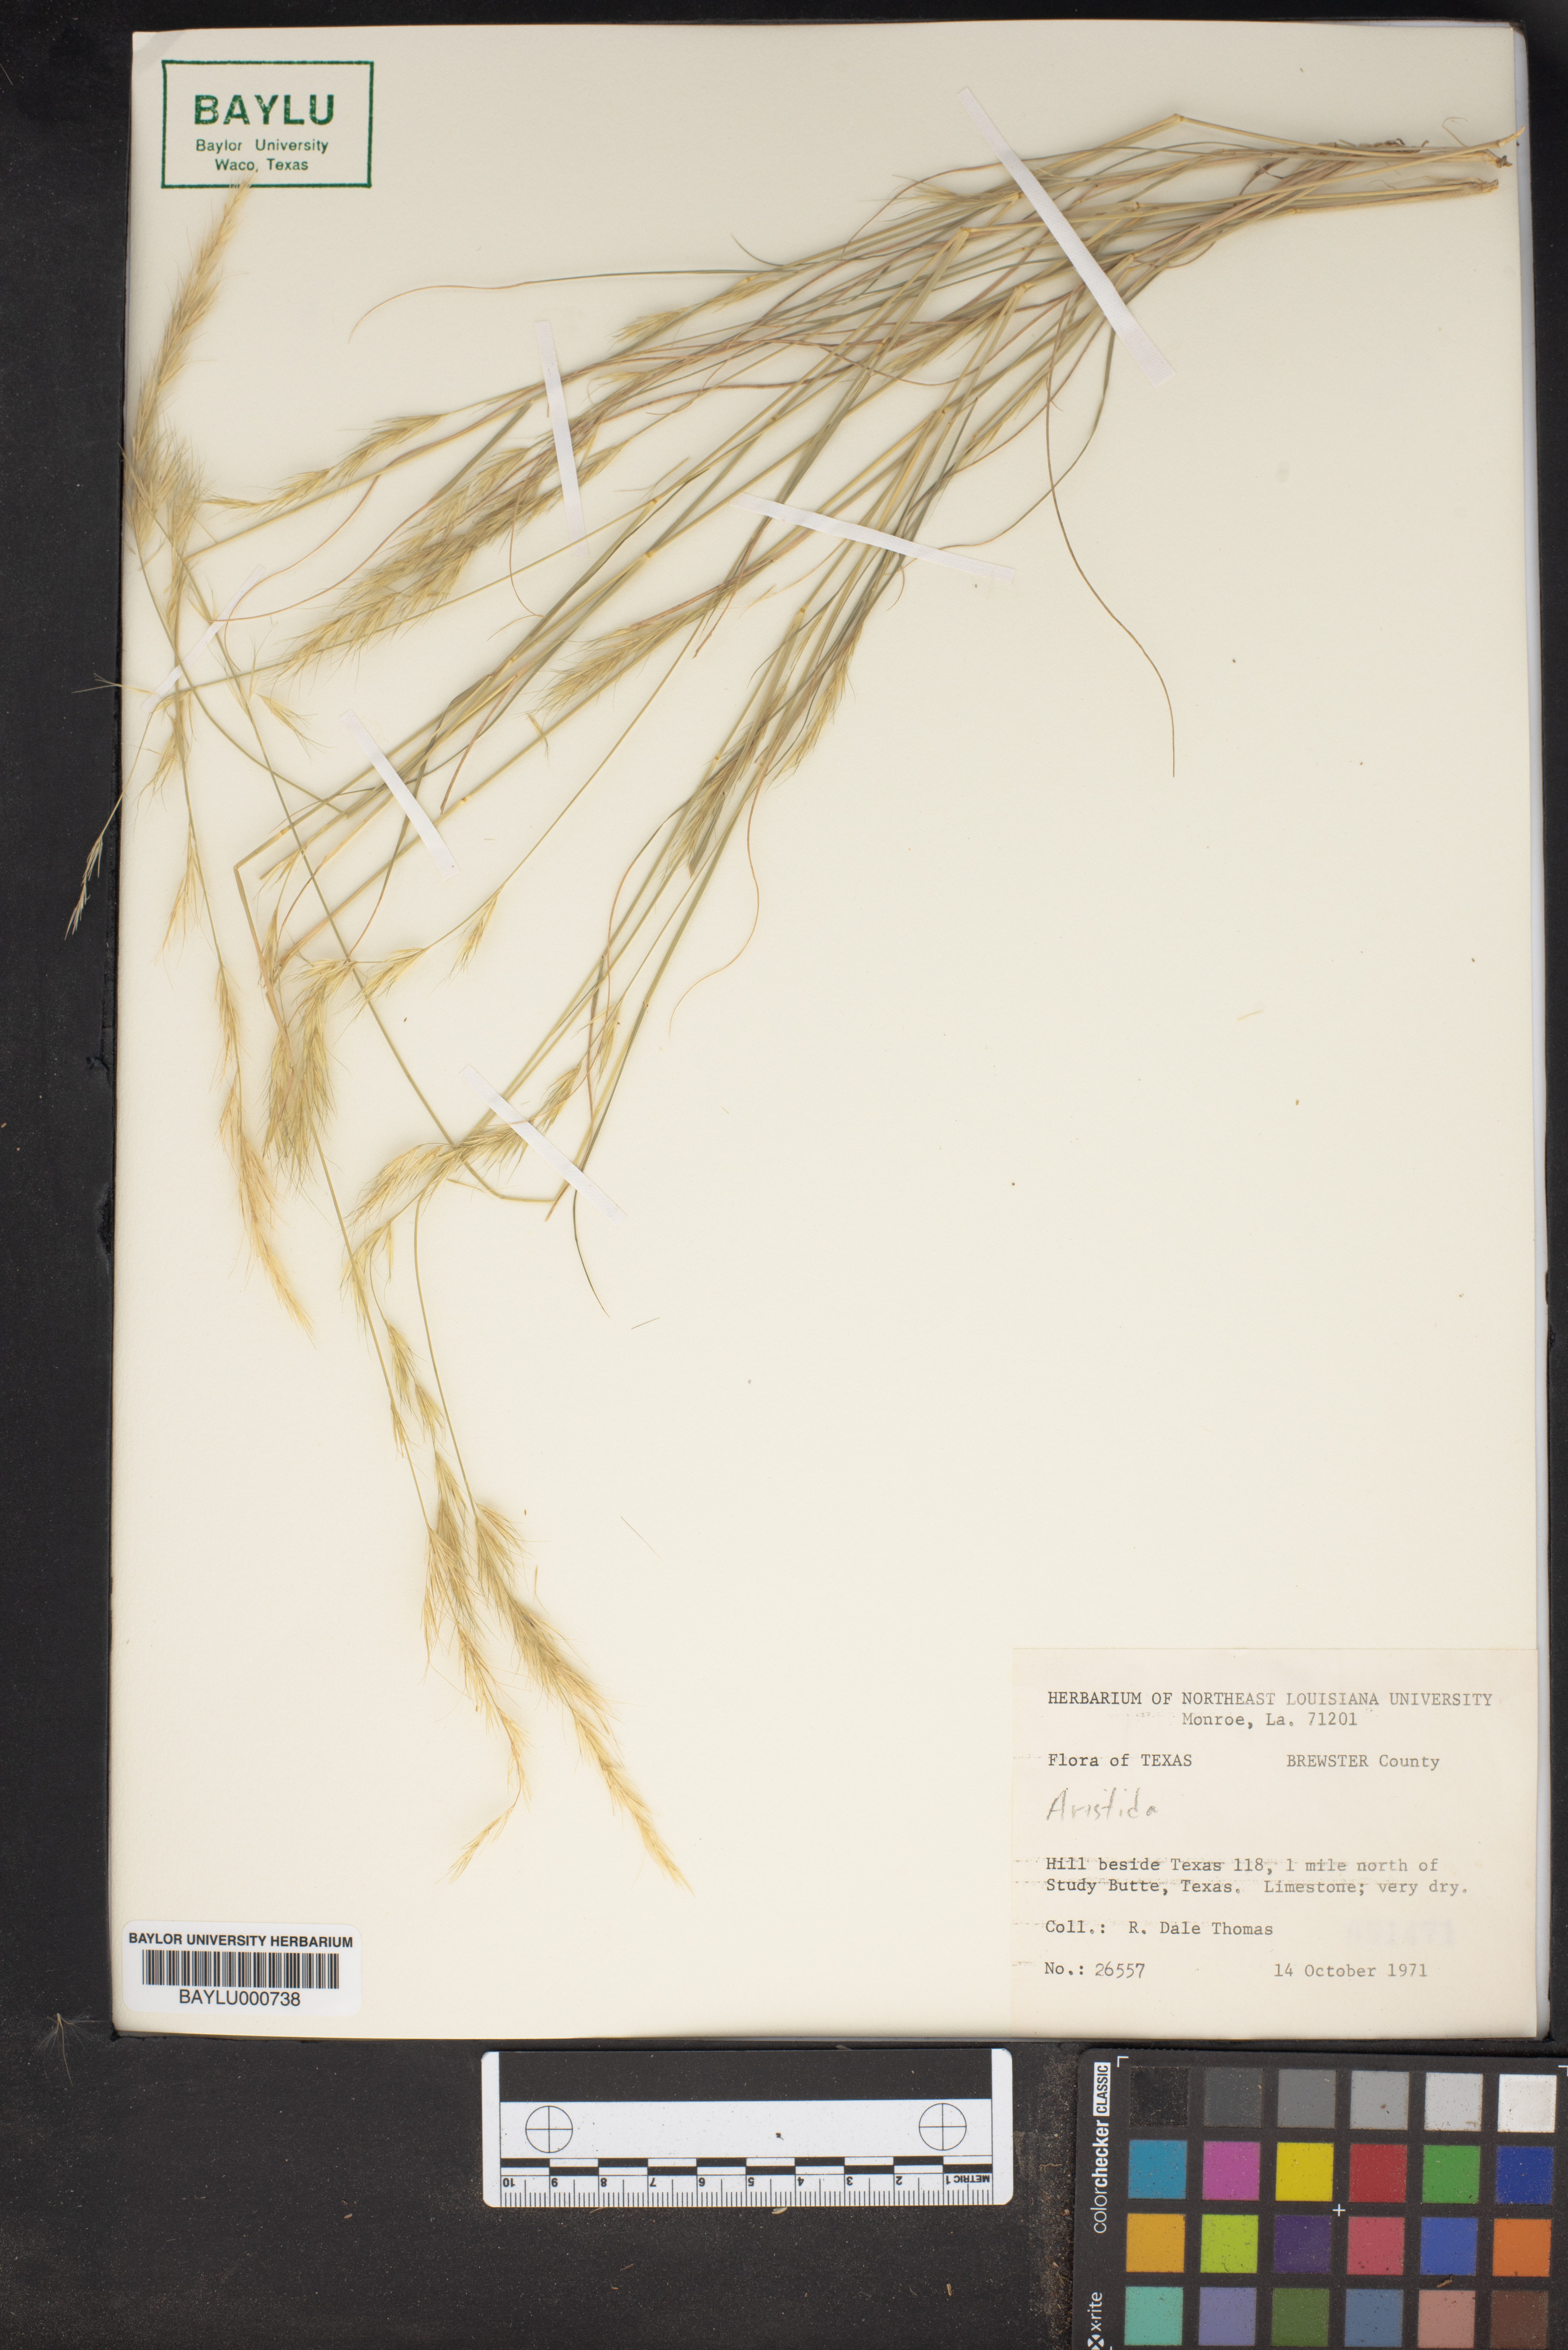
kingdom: Plantae
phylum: Tracheophyta
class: Liliopsida
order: Poales
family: Poaceae
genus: Aristida
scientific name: Aristida
